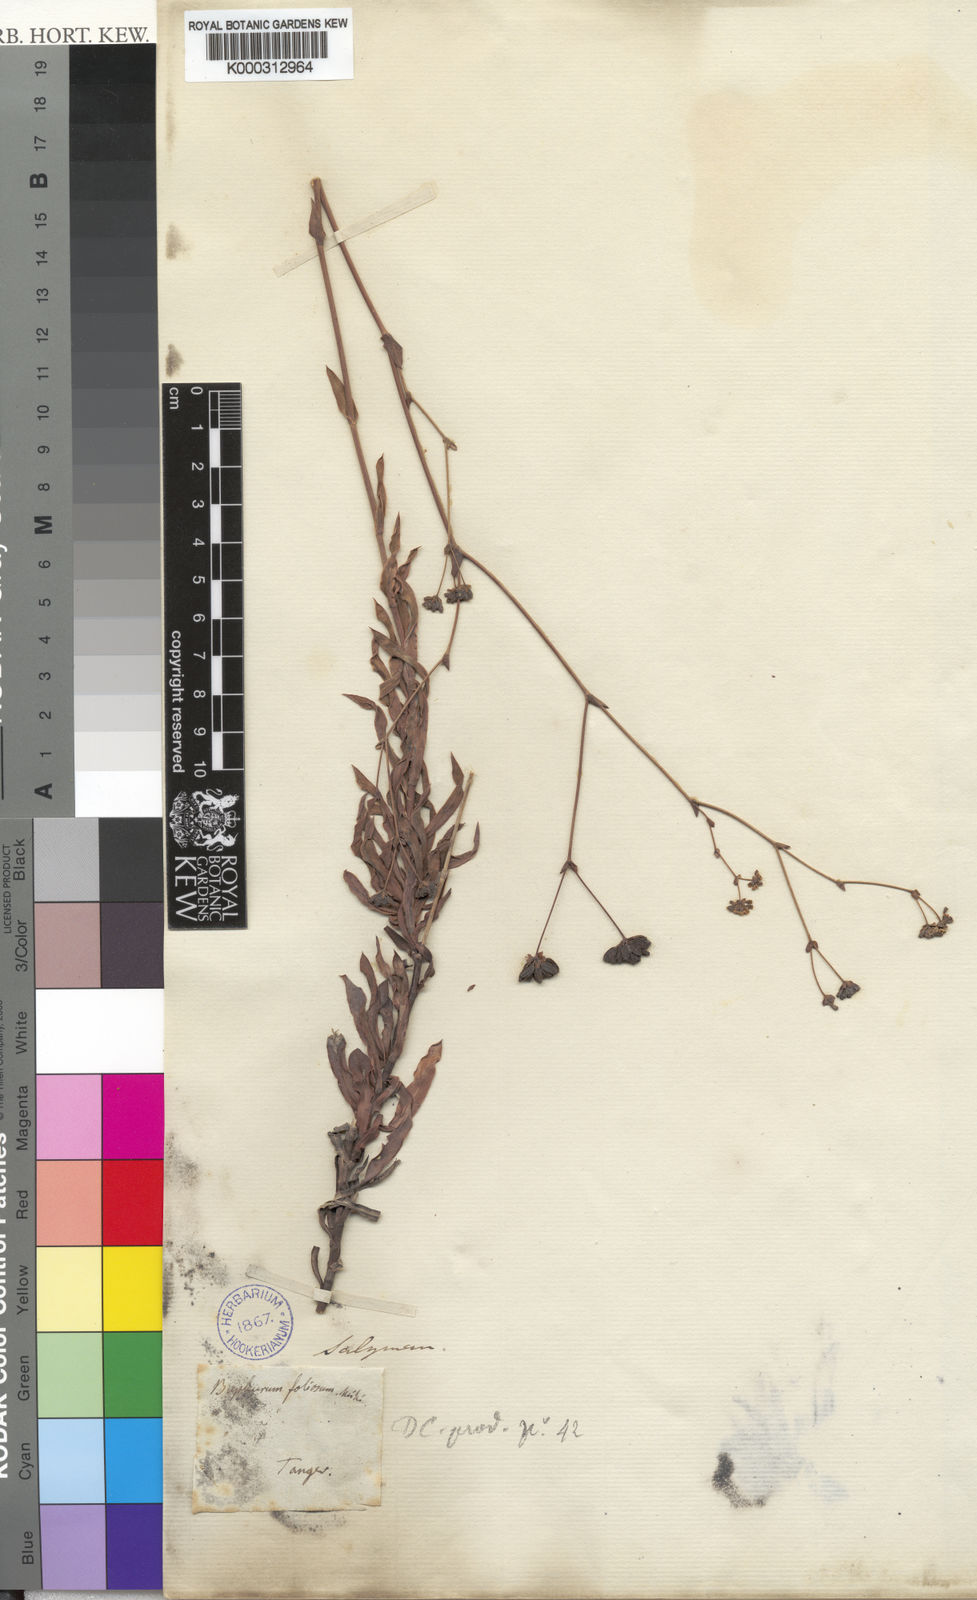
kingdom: Plantae
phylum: Tracheophyta
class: Magnoliopsida
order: Apiales
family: Apiaceae
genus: Bupleurum
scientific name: Bupleurum
